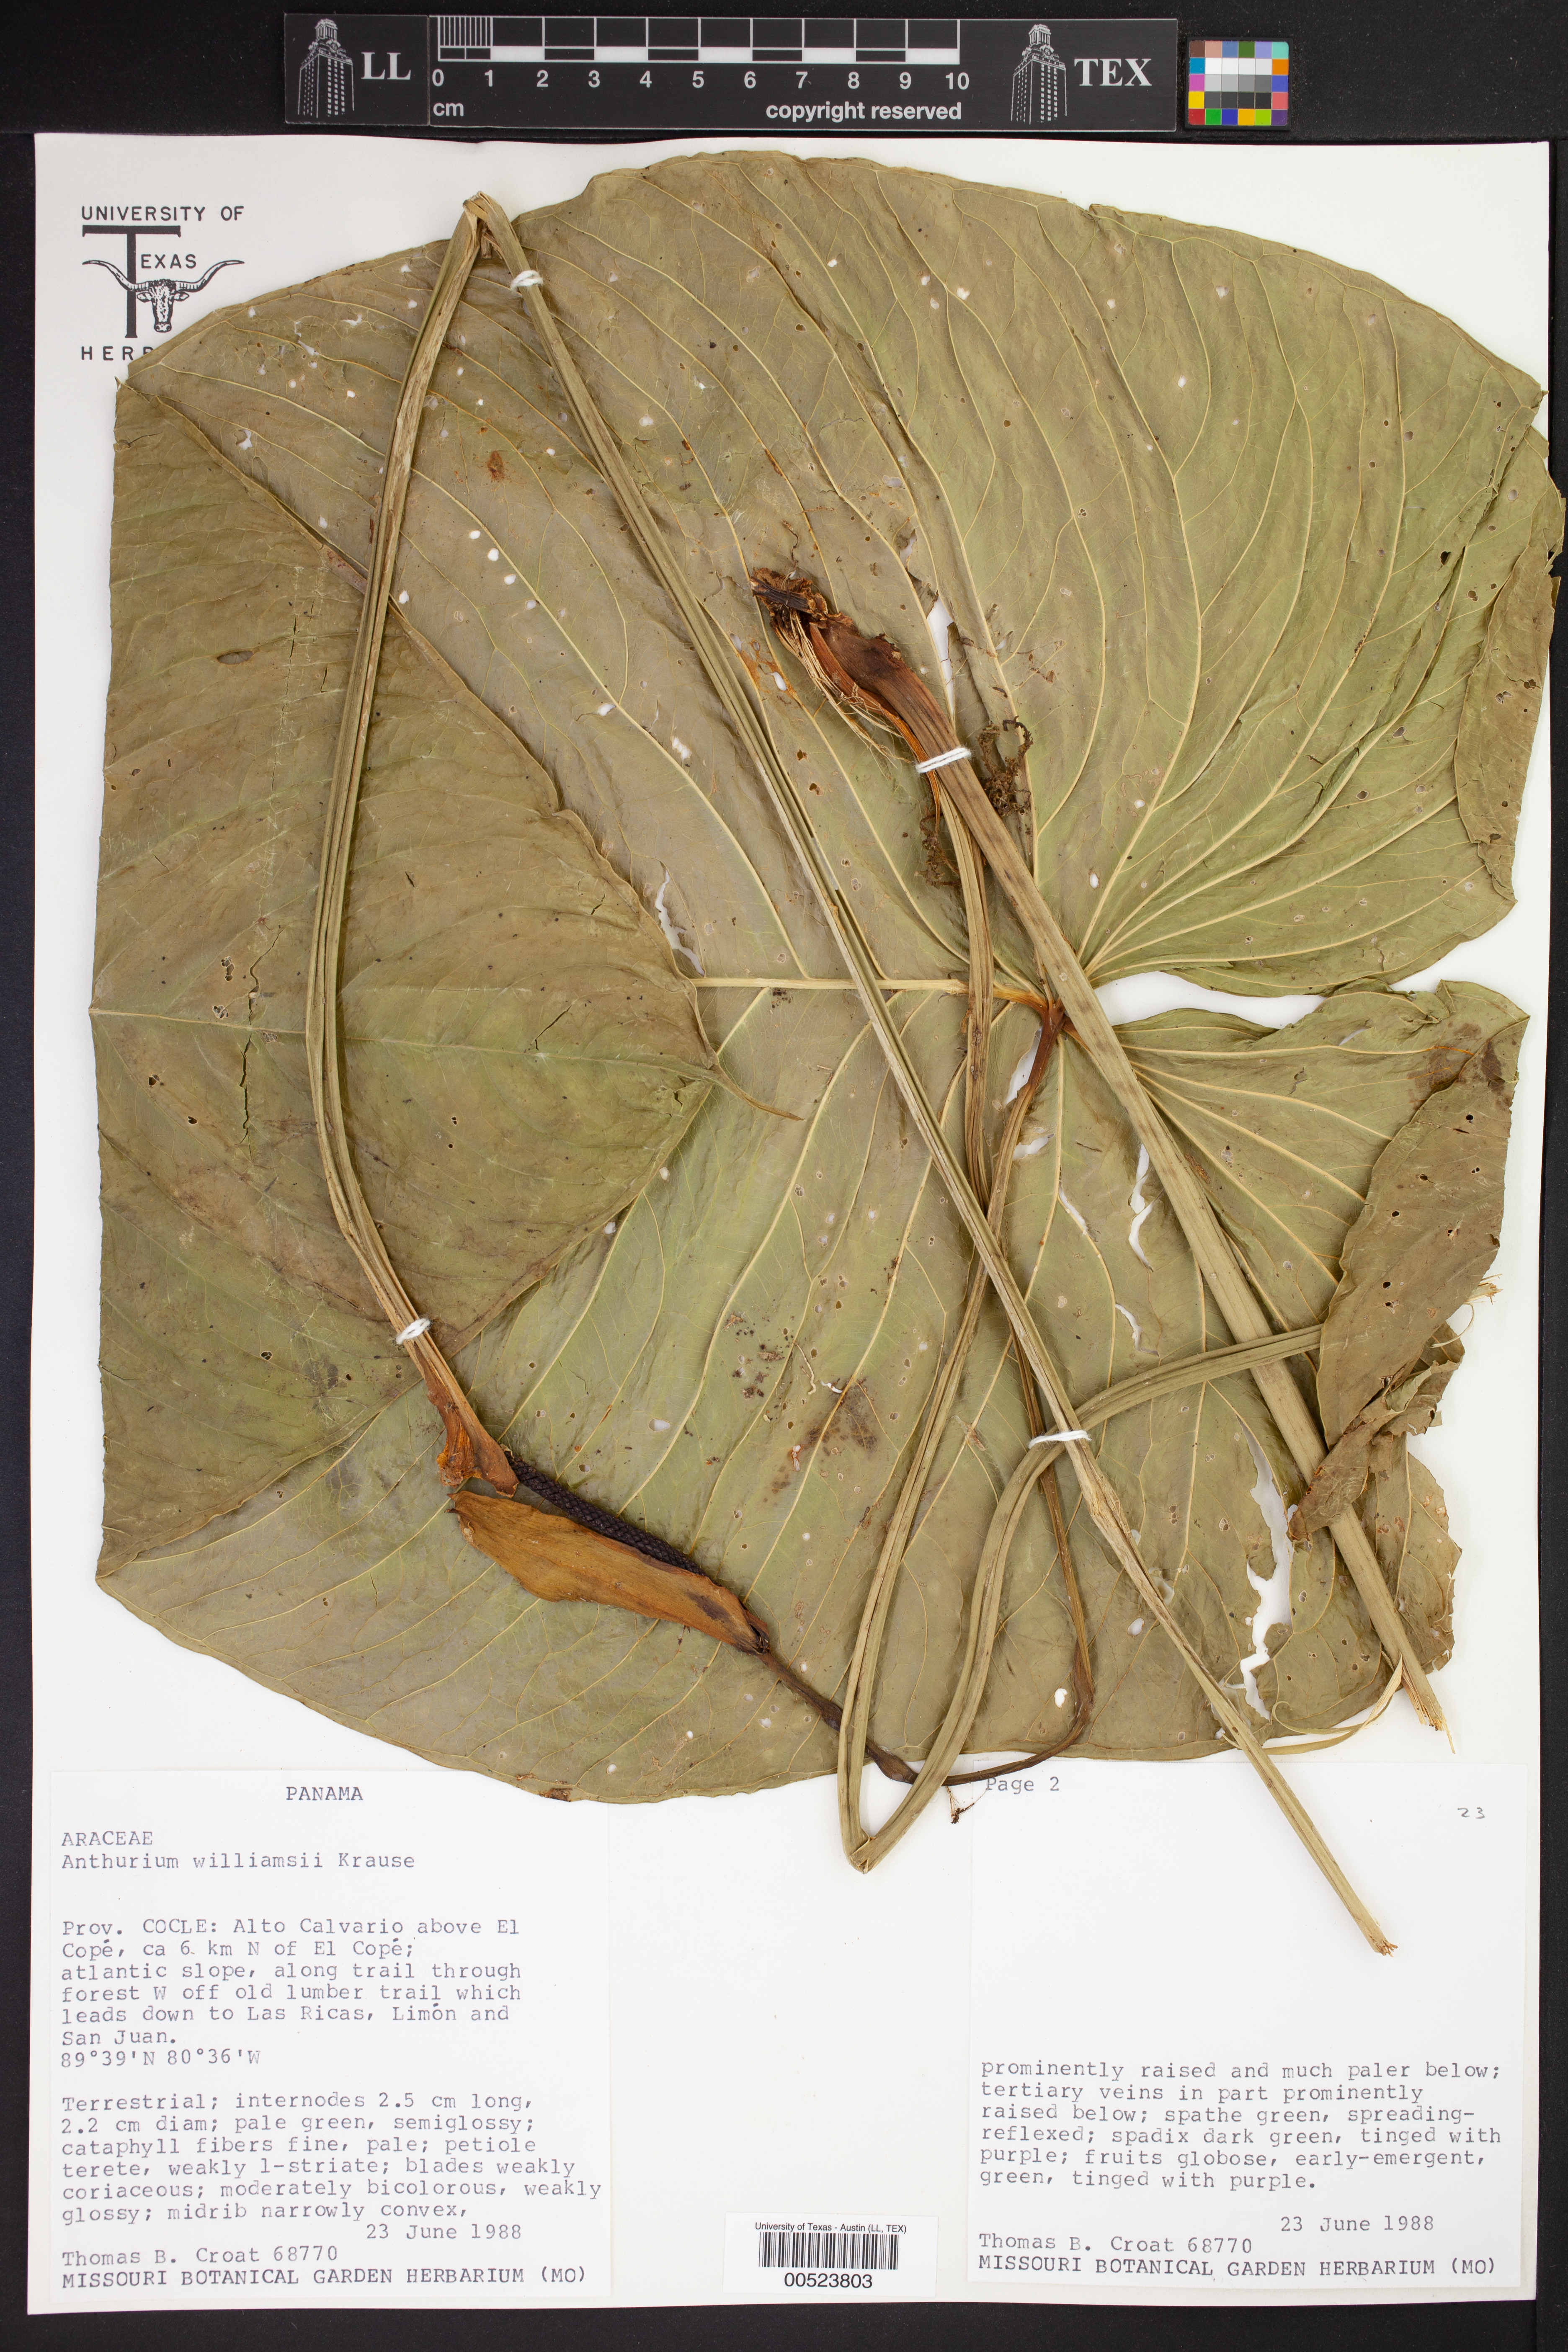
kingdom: Plantae
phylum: Tracheophyta
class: Liliopsida
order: Alismatales
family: Araceae
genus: Anthurium
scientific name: Anthurium
